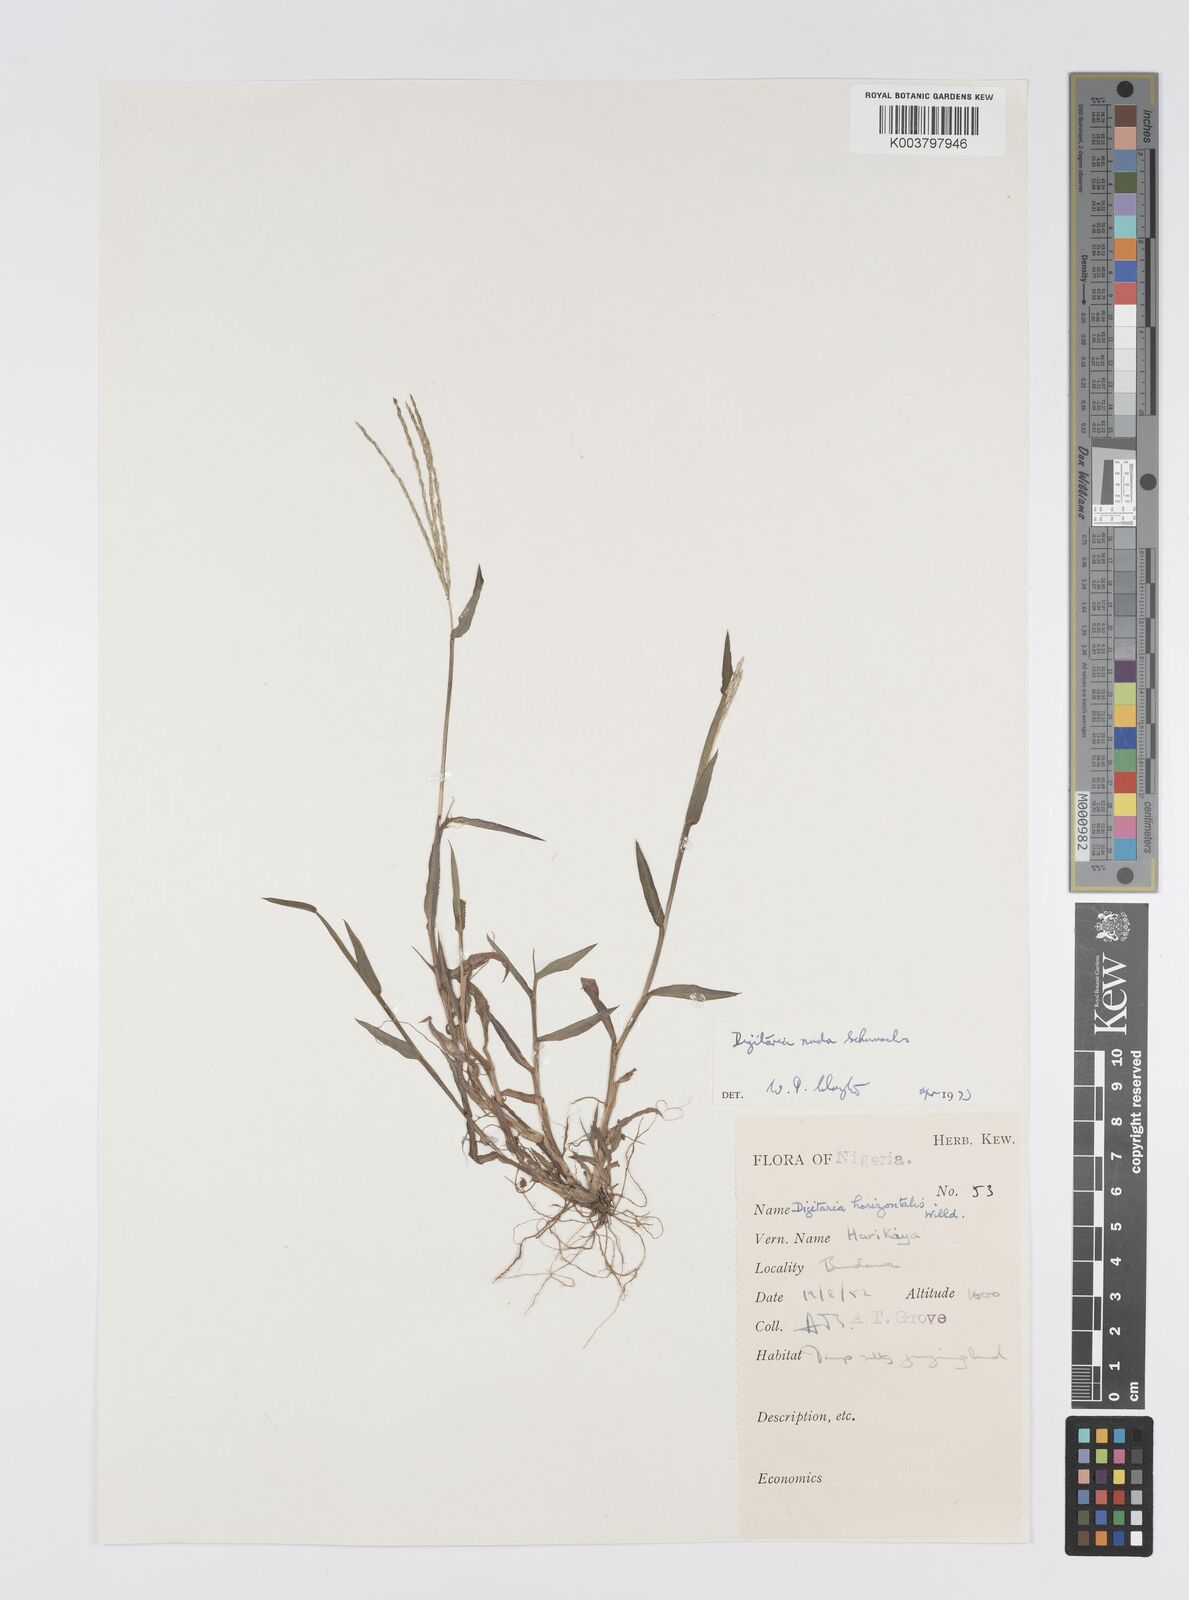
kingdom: Plantae
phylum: Tracheophyta
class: Liliopsida
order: Poales
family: Poaceae
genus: Digitaria
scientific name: Digitaria nuda
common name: Naked crabgrass
